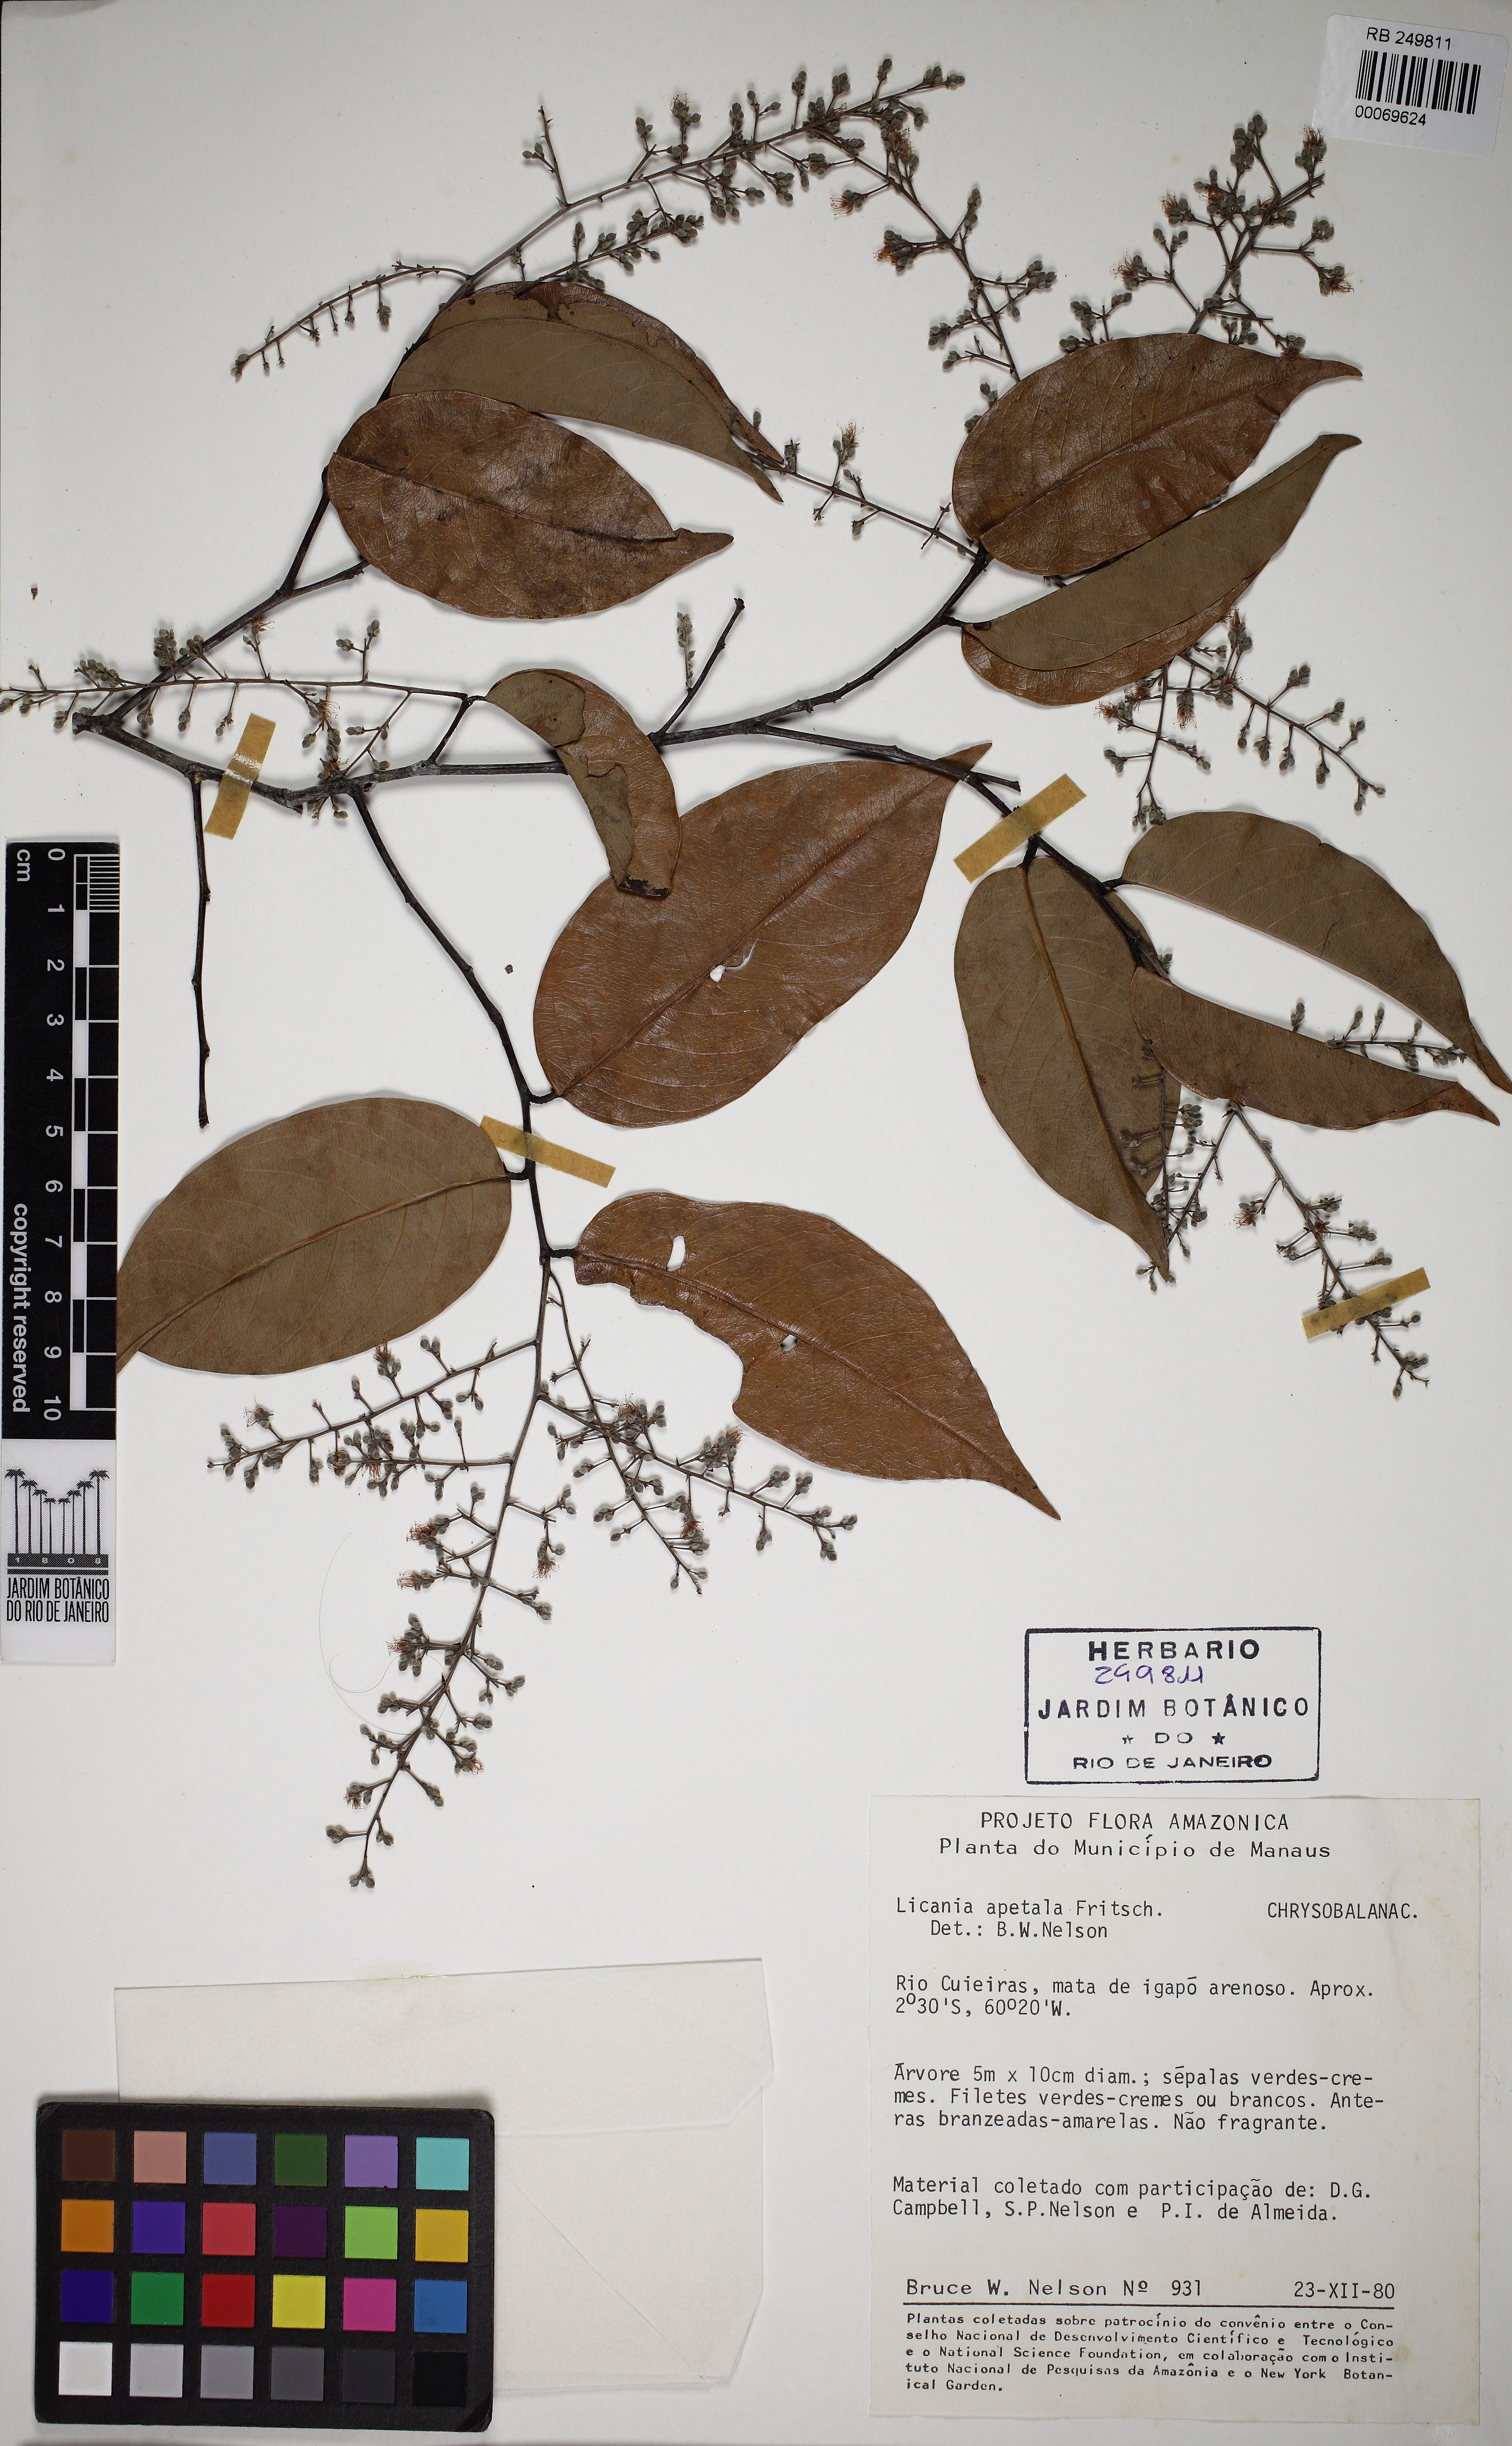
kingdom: Plantae
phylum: Tracheophyta
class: Magnoliopsida
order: Malpighiales
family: Chrysobalanaceae
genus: Leptobalanus
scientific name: Leptobalanus apetalus
